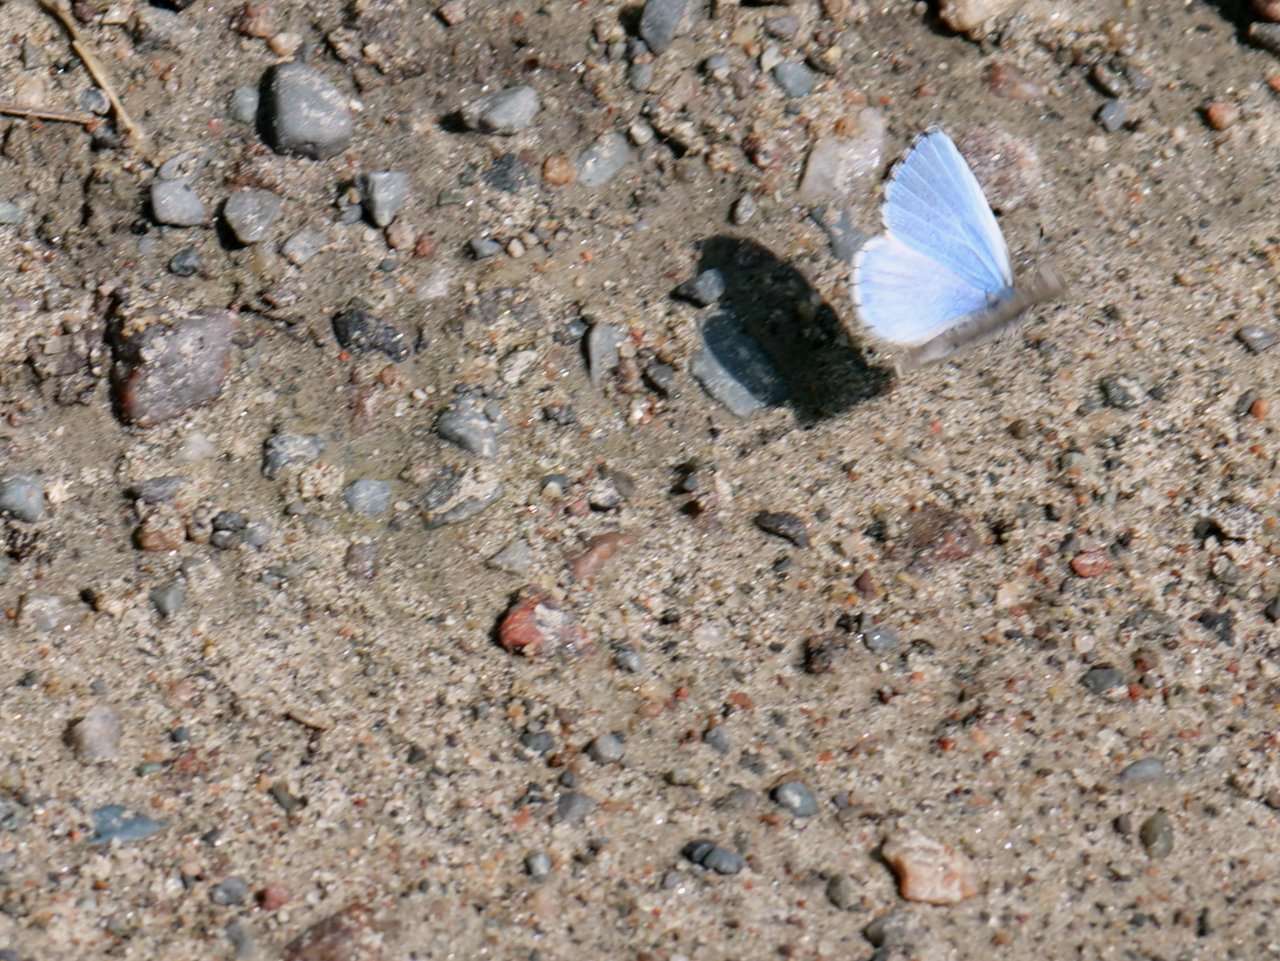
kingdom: Animalia
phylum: Arthropoda
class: Insecta
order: Lepidoptera
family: Lycaenidae
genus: Celastrina
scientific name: Celastrina lucia
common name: Northern Spring Azure
